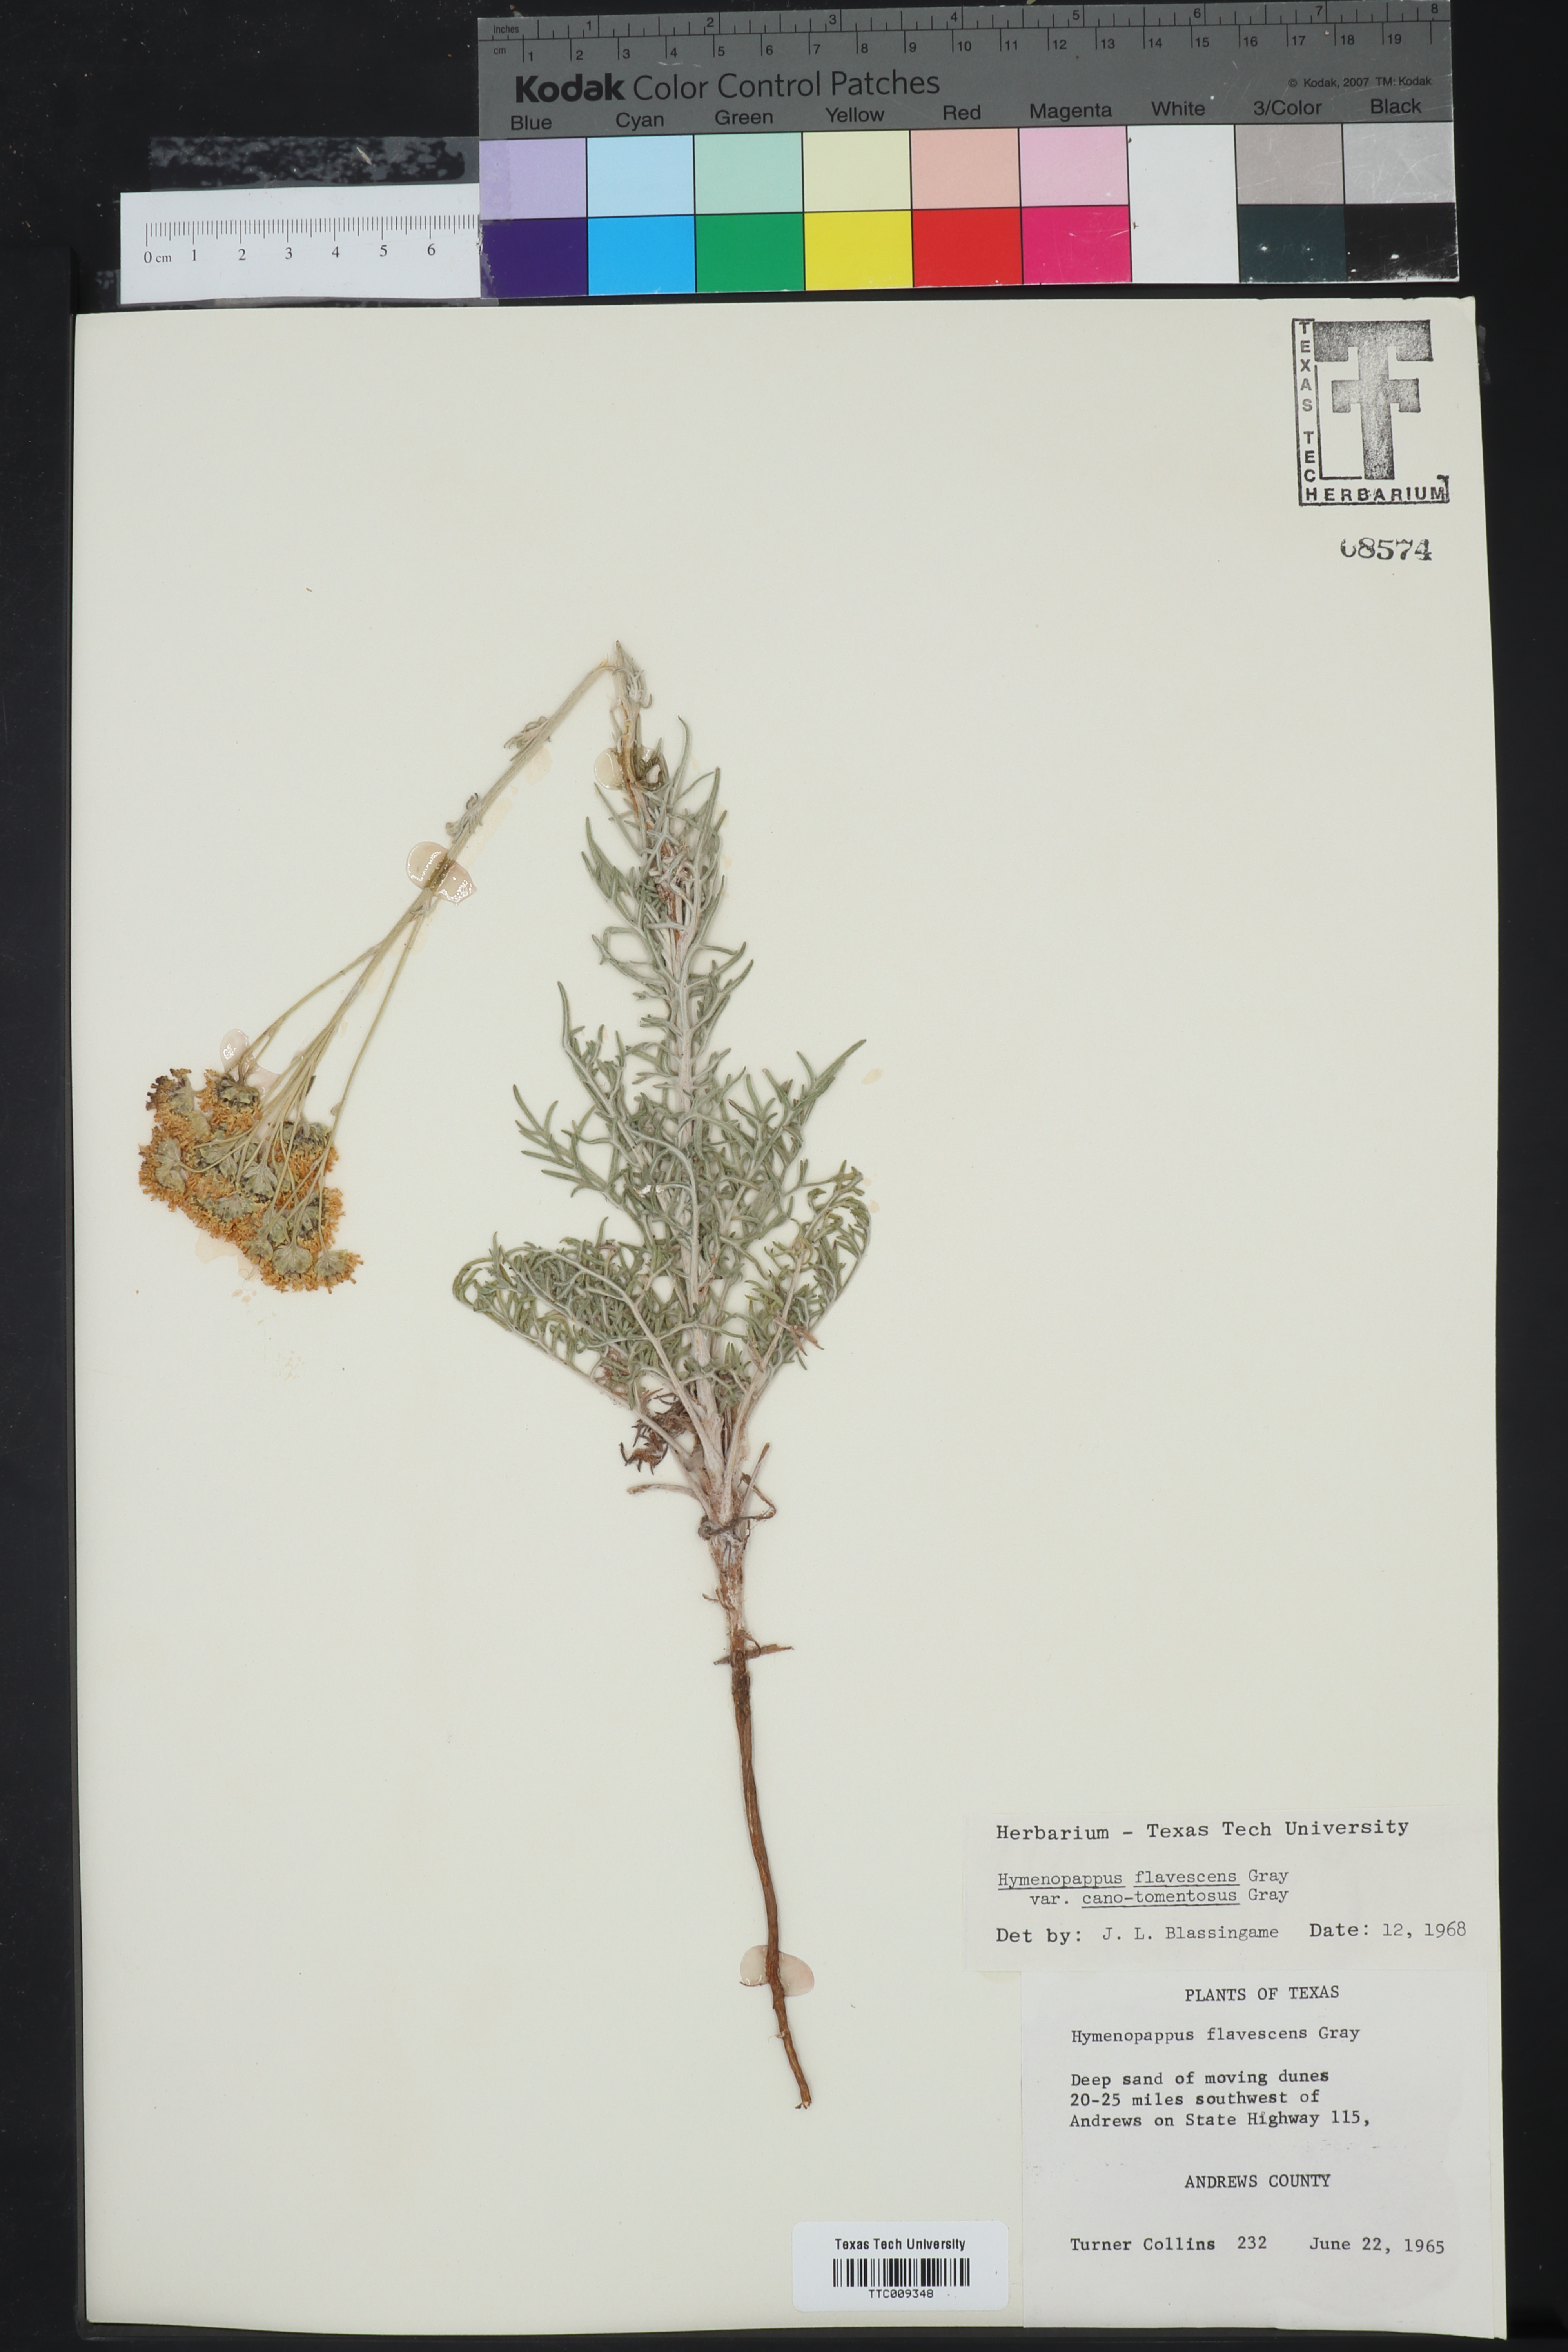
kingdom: Plantae
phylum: Tracheophyta
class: Magnoliopsida
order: Asterales
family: Asteraceae
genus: Hymenopappus
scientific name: Hymenopappus flavescens
